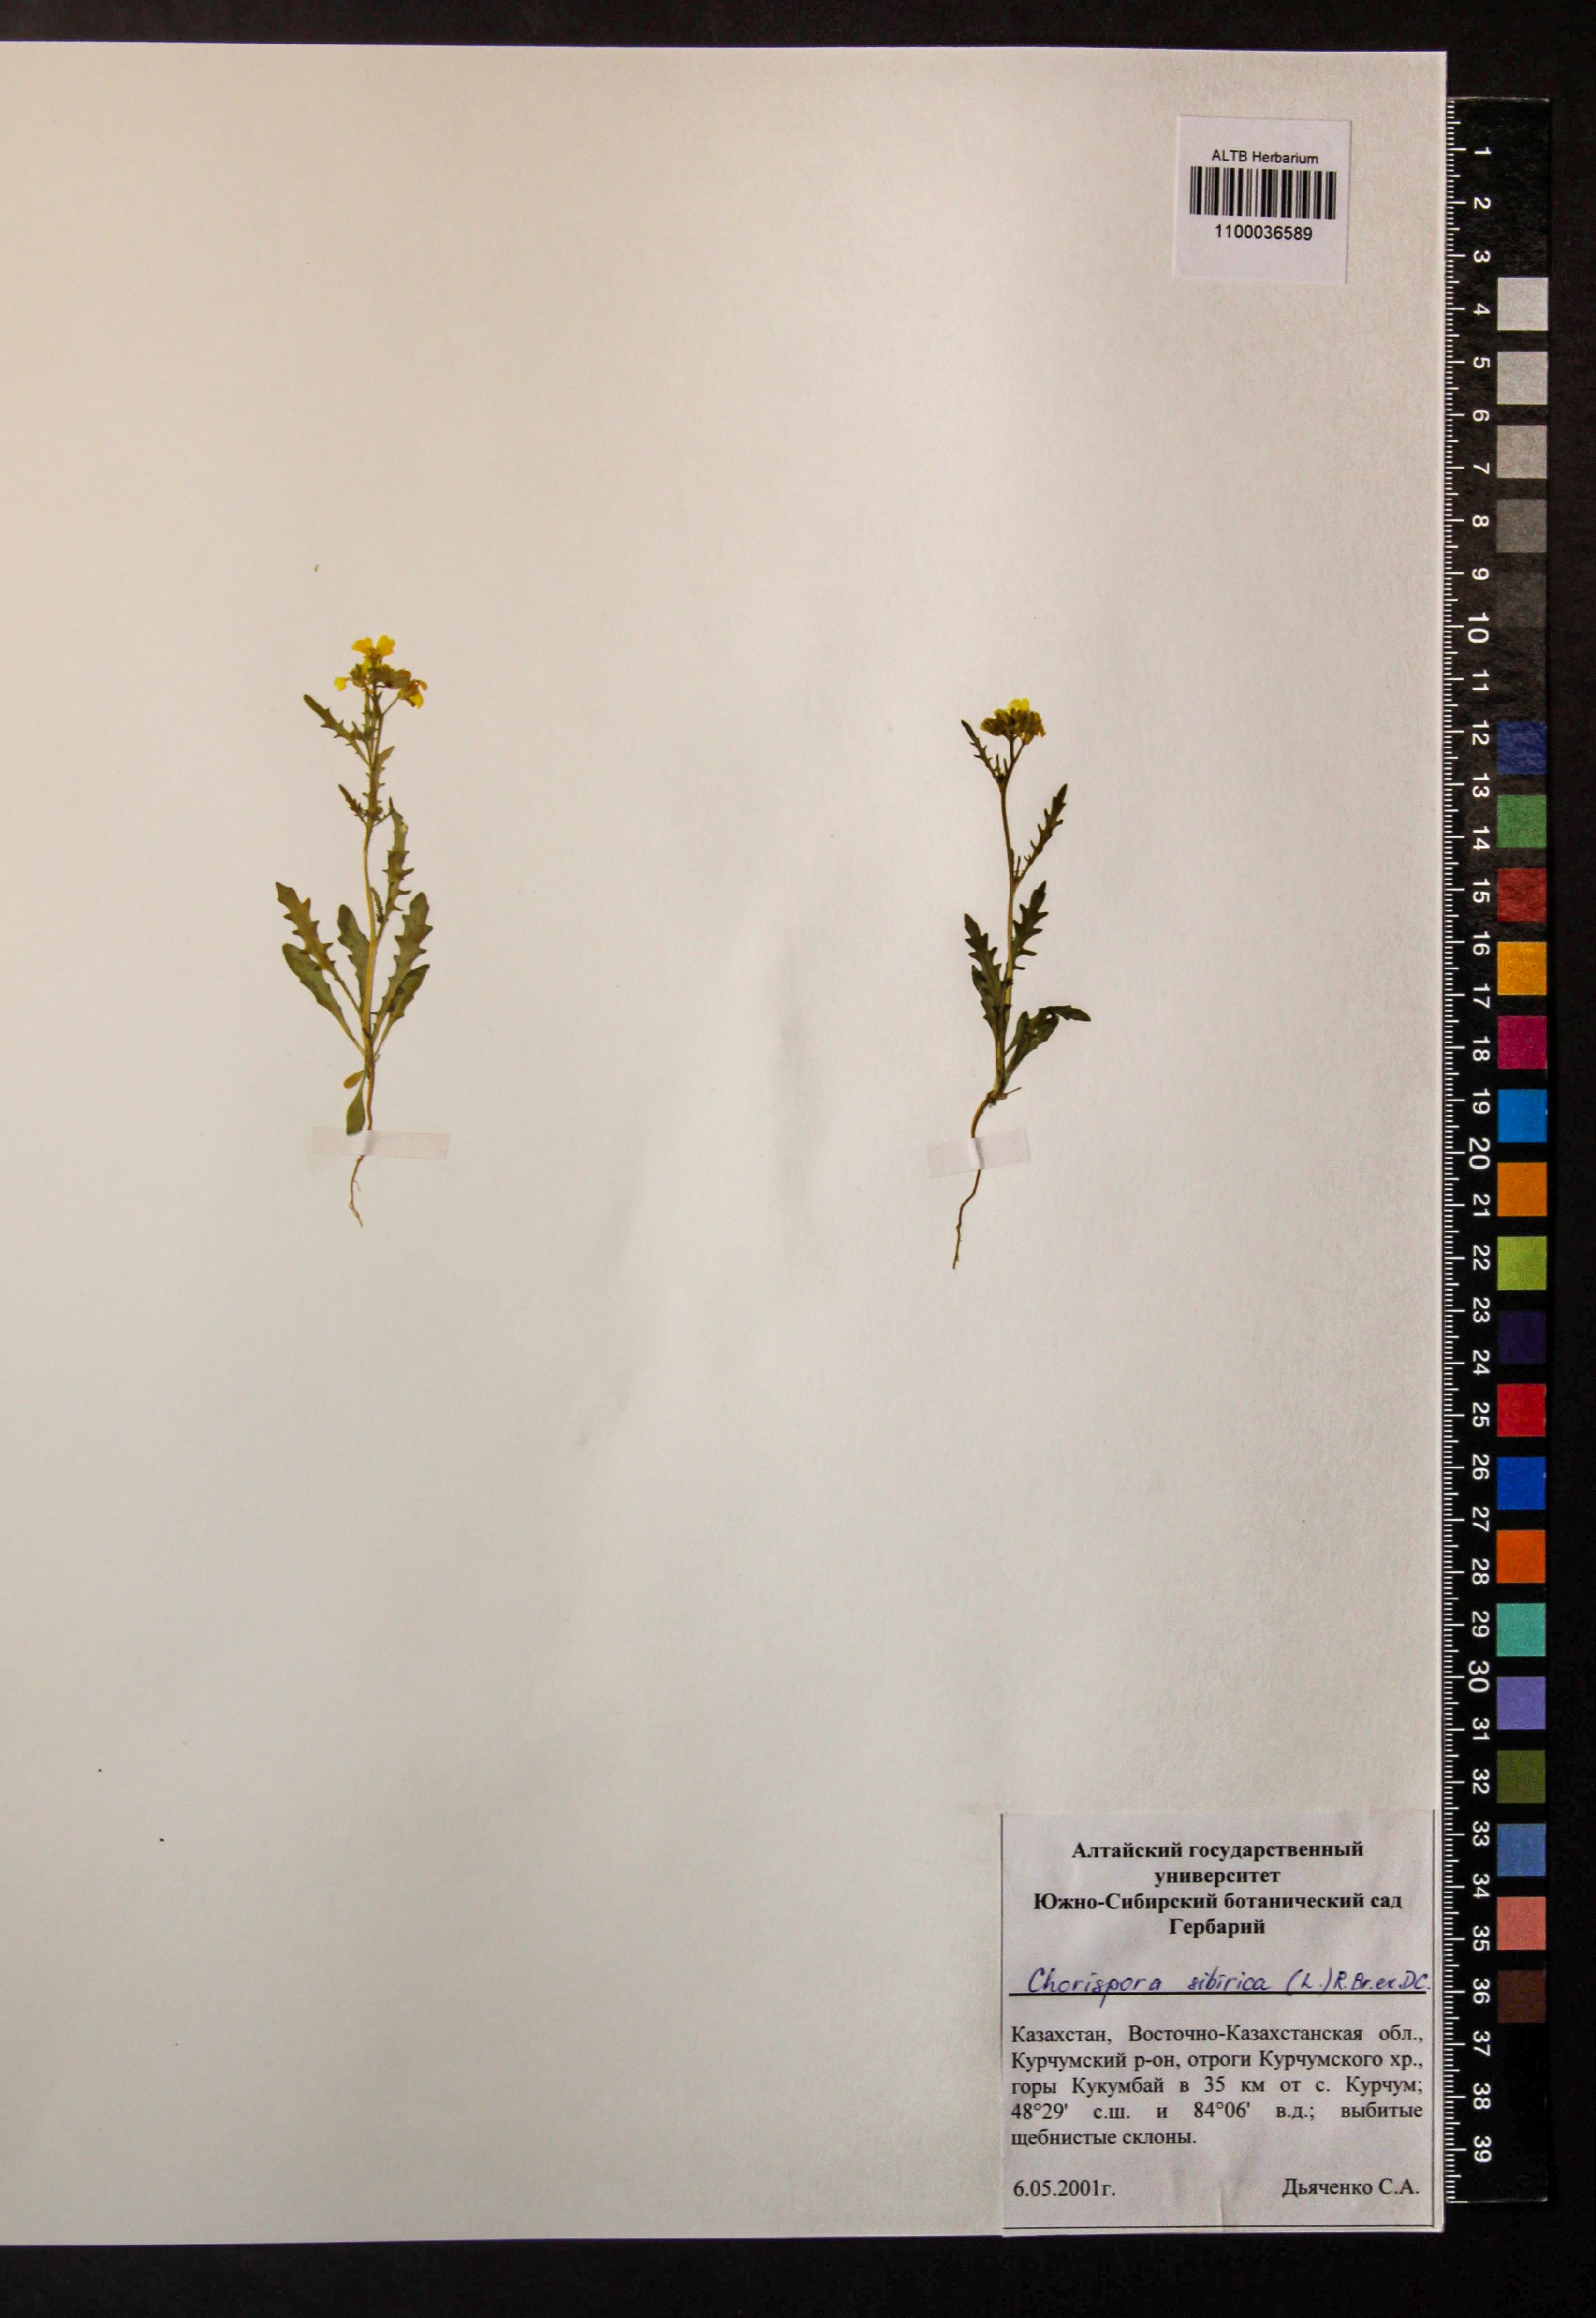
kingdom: Plantae
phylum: Tracheophyta
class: Magnoliopsida
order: Brassicales
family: Brassicaceae
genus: Chorispora
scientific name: Chorispora sibirica
